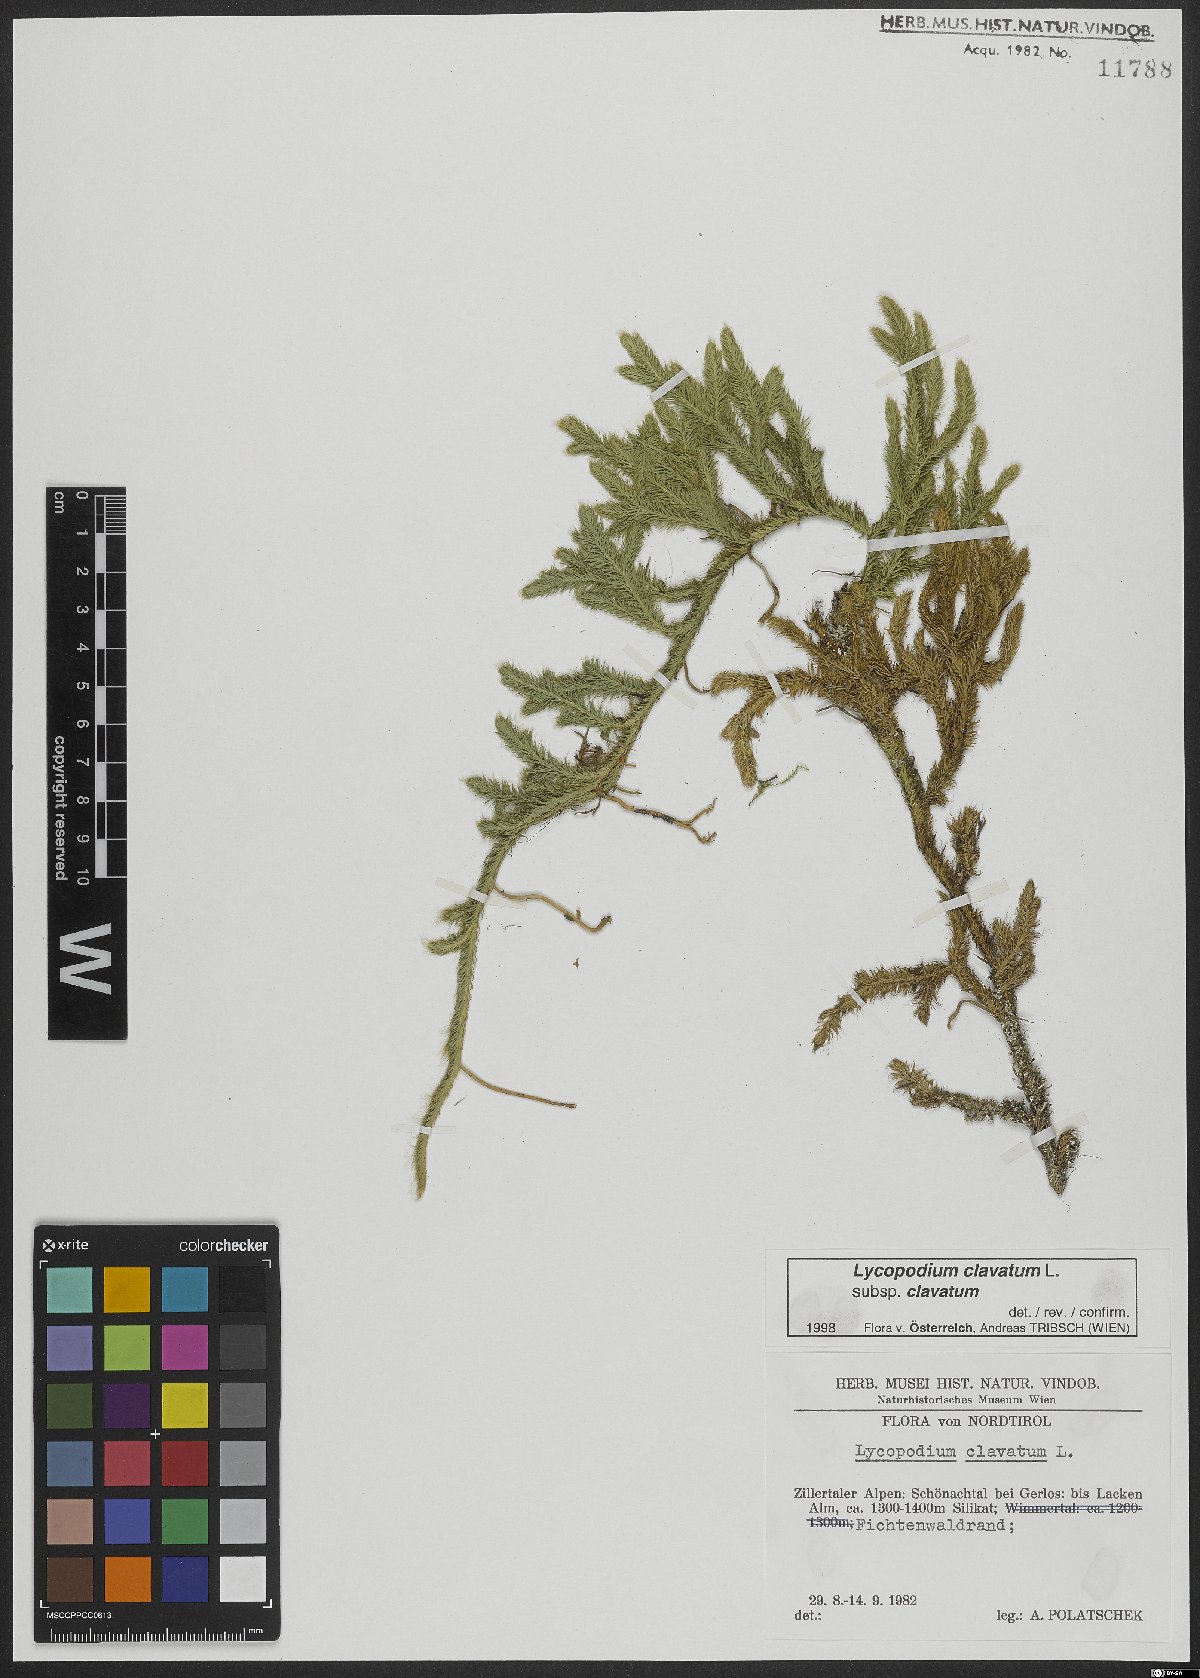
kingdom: Plantae
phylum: Tracheophyta
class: Lycopodiopsida
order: Lycopodiales
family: Lycopodiaceae
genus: Lycopodium
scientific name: Lycopodium clavatum
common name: Stag's-horn clubmoss
